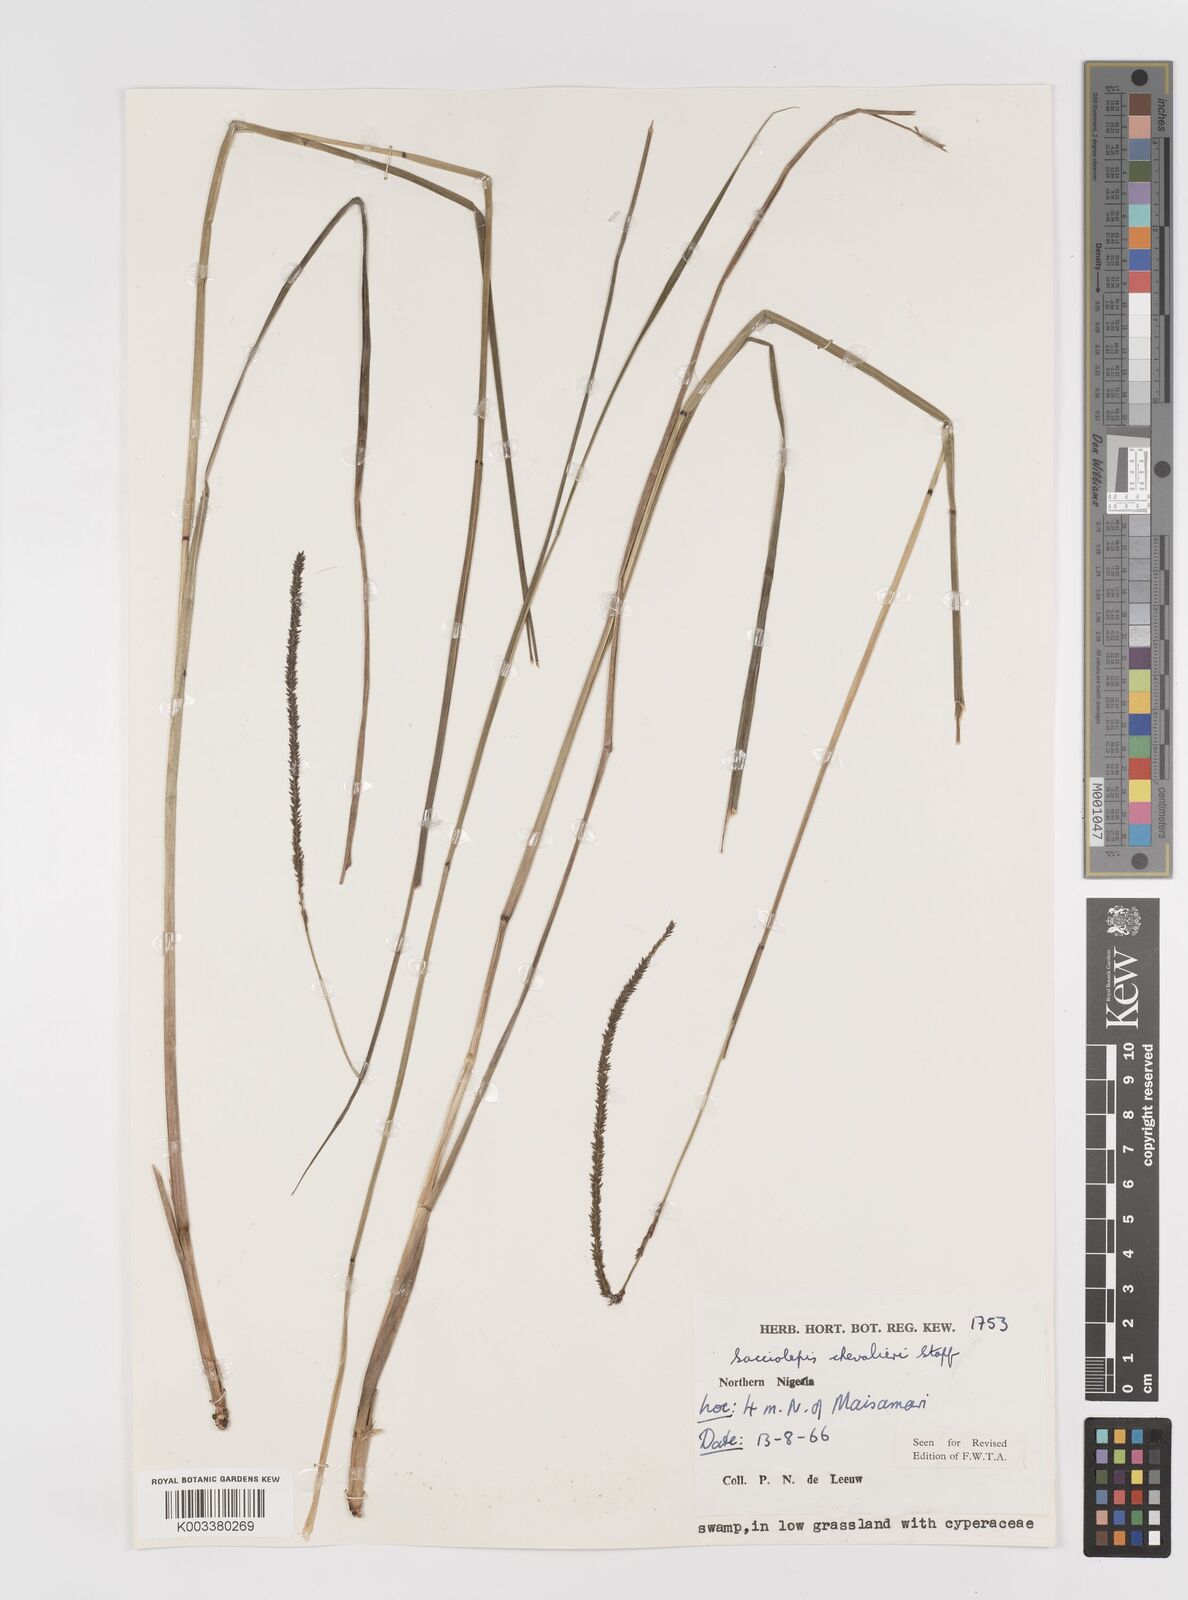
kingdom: Plantae
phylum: Tracheophyta
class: Liliopsida
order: Poales
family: Poaceae
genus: Sacciolepis
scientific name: Sacciolepis typhura
